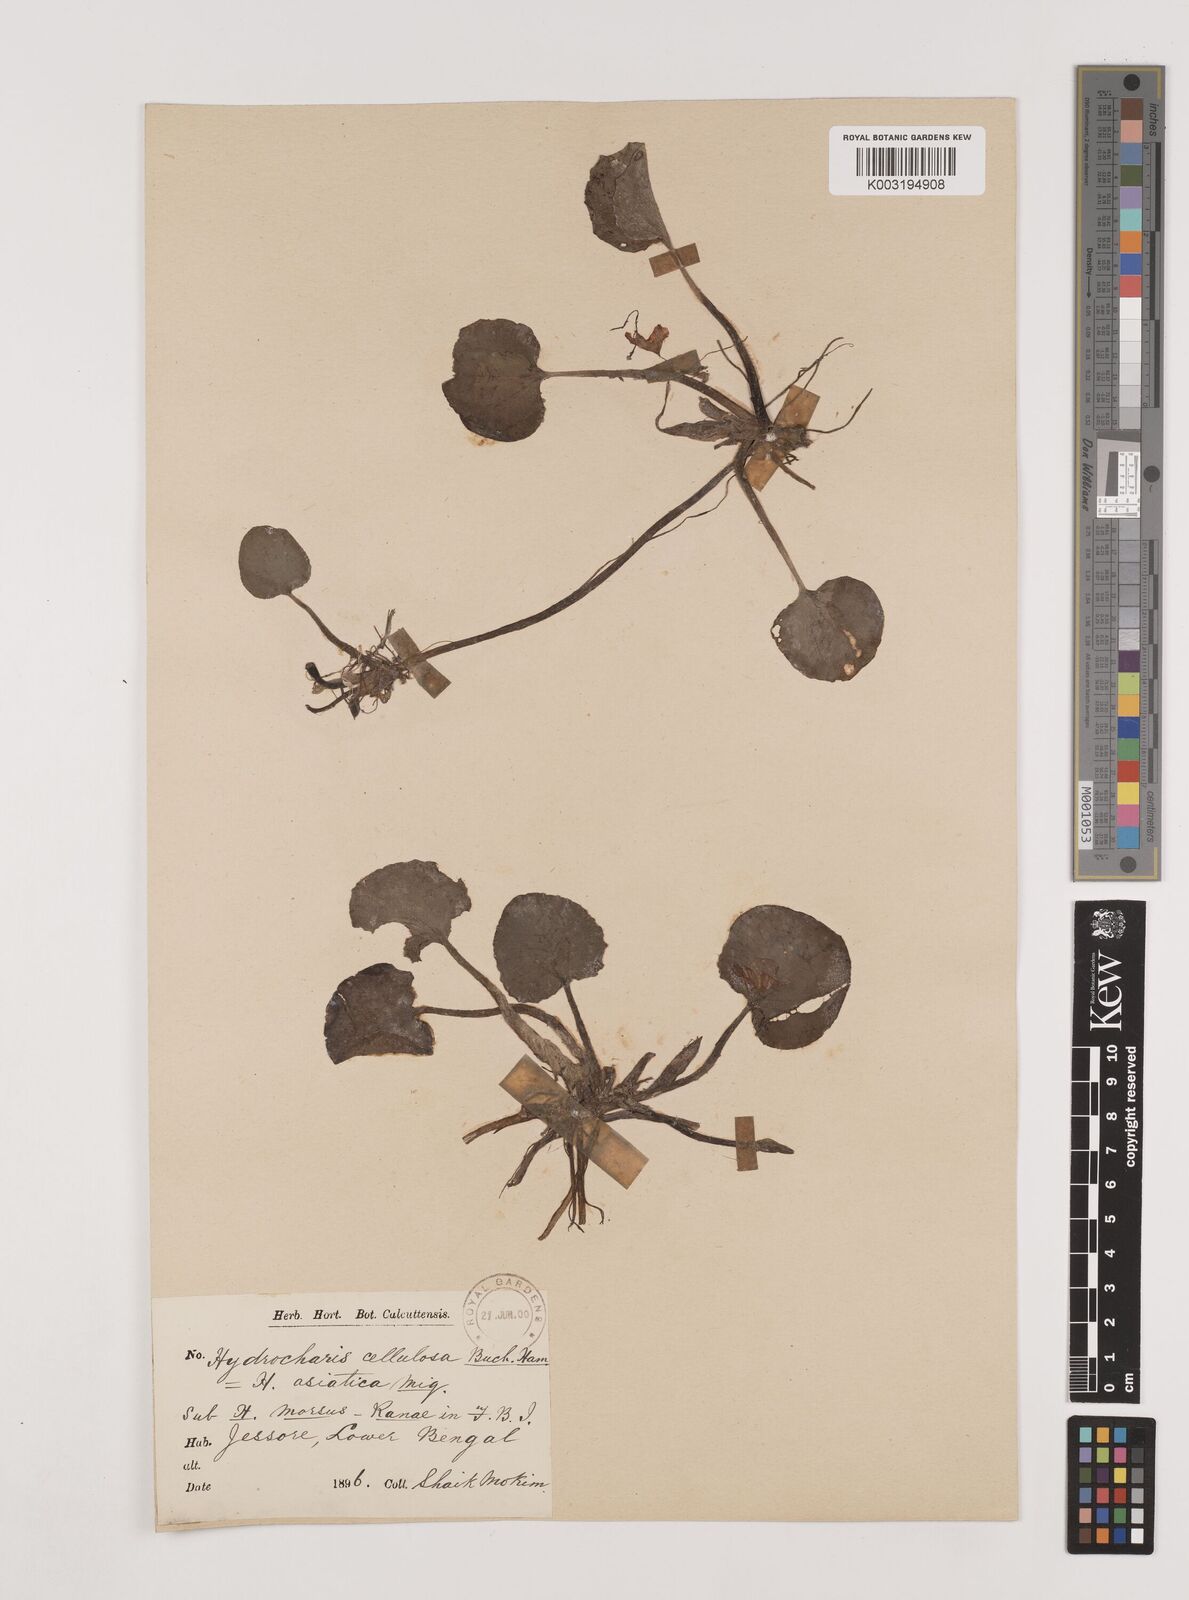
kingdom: Plantae
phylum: Tracheophyta
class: Liliopsida
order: Alismatales
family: Hydrocharitaceae
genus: Hydrocharis
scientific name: Hydrocharis dubia
